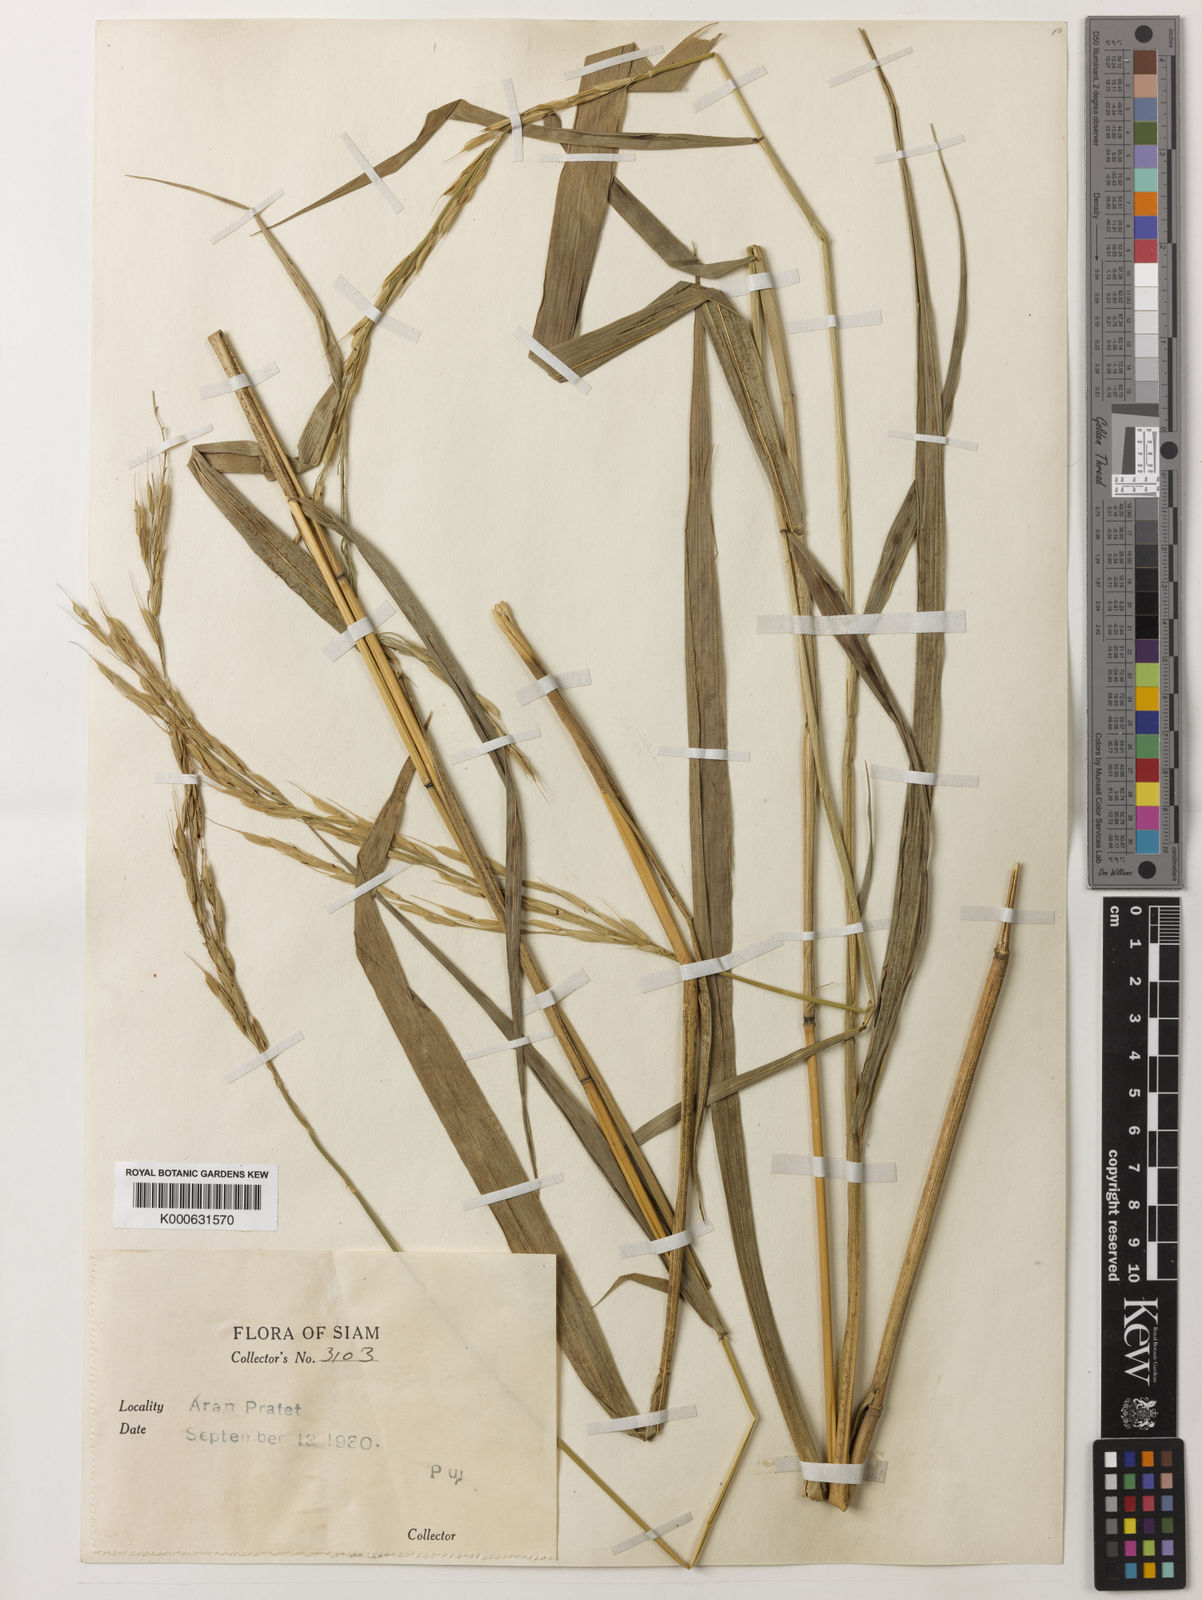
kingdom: Plantae
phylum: Tracheophyta
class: Liliopsida
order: Poales
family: Poaceae
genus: Oryza
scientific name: Oryza ridleyi
